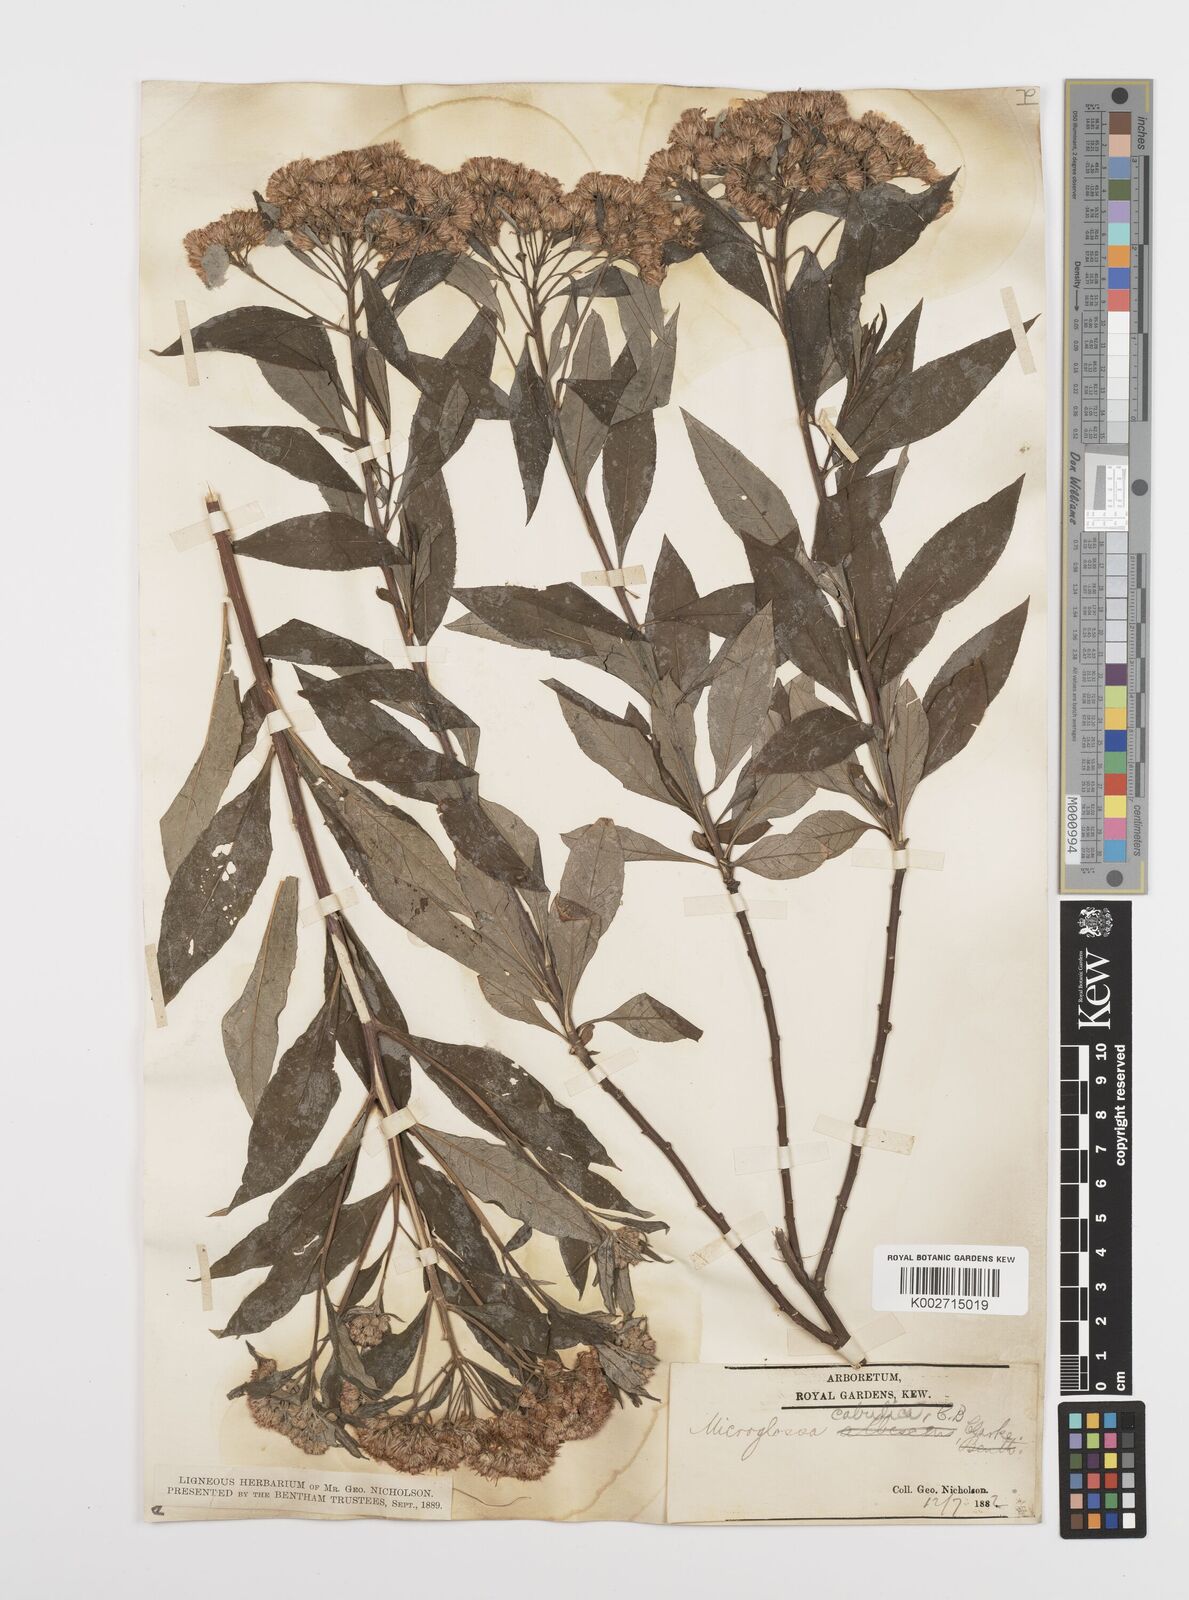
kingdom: Plantae
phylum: Tracheophyta
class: Magnoliopsida
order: Asterales
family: Asteraceae
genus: Sinosidus
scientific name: Sinosidus albescens
